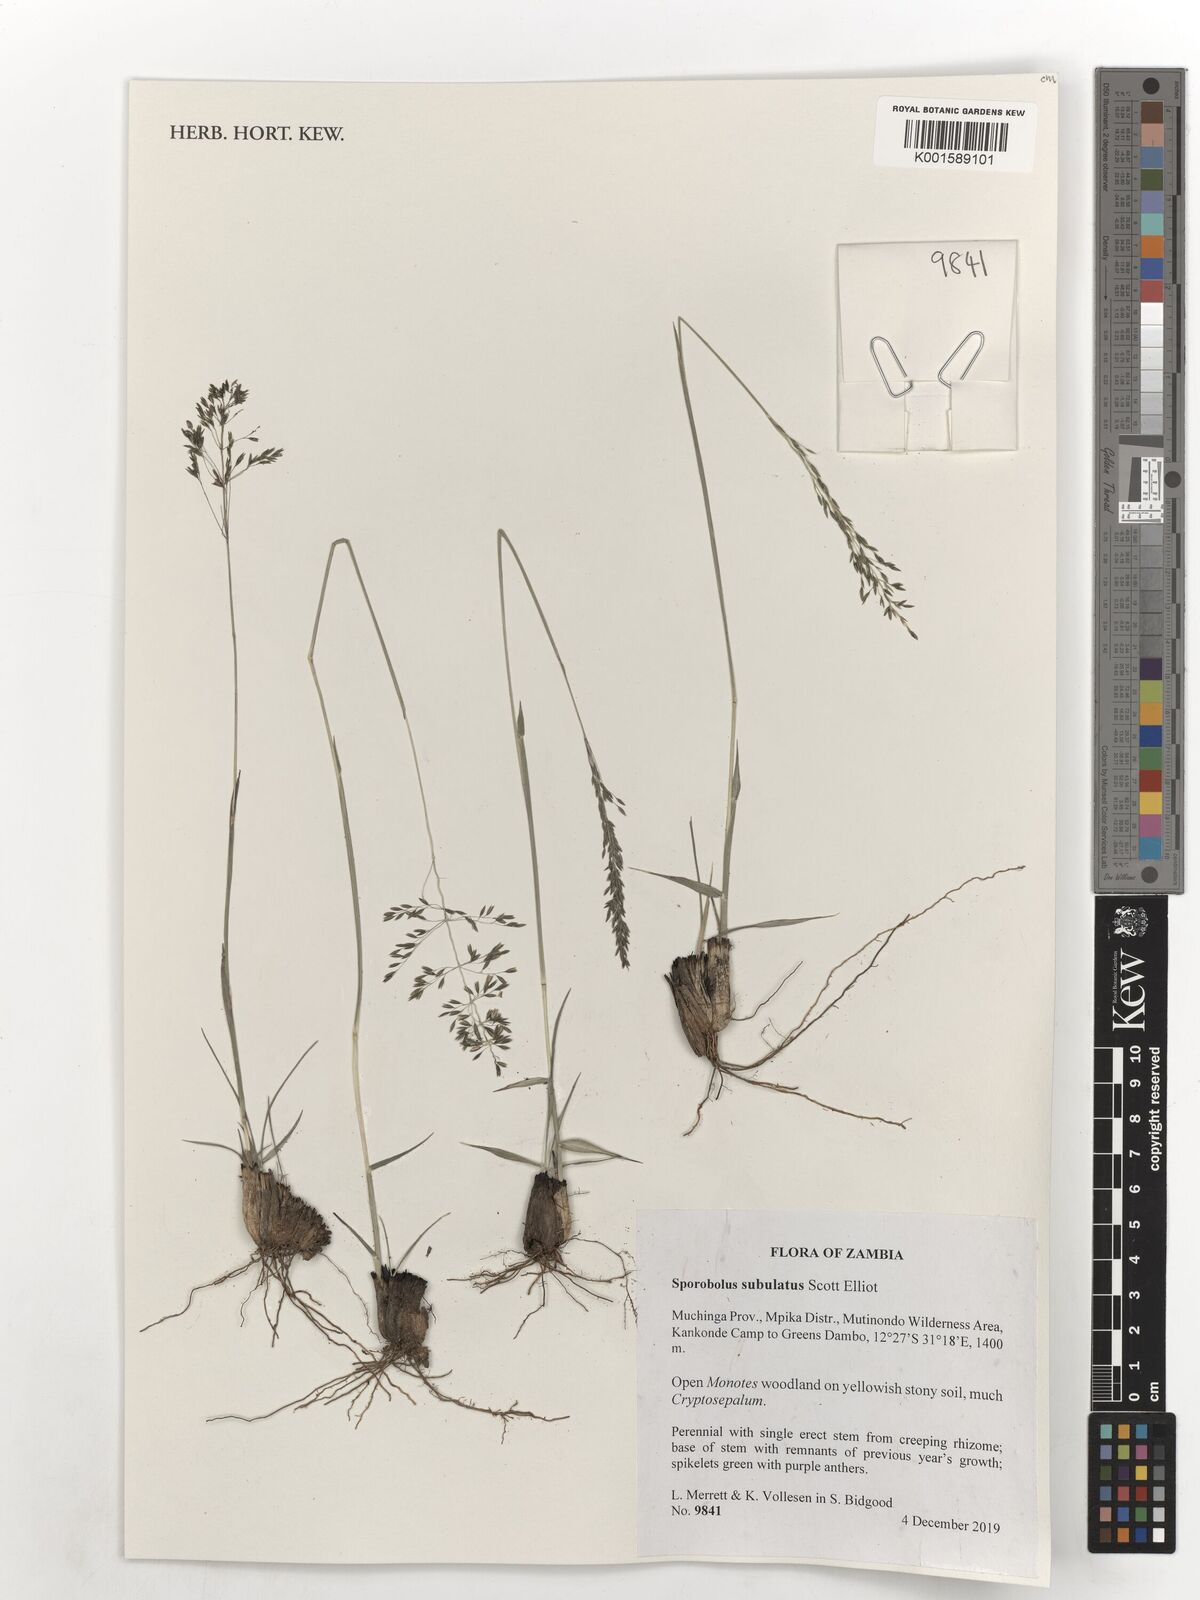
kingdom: Plantae
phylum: Tracheophyta
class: Liliopsida
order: Poales
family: Poaceae
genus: Sporobolus
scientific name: Sporobolus subulatus
